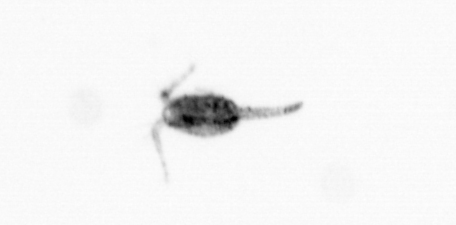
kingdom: Animalia
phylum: Arthropoda
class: Copepoda
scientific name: Copepoda
